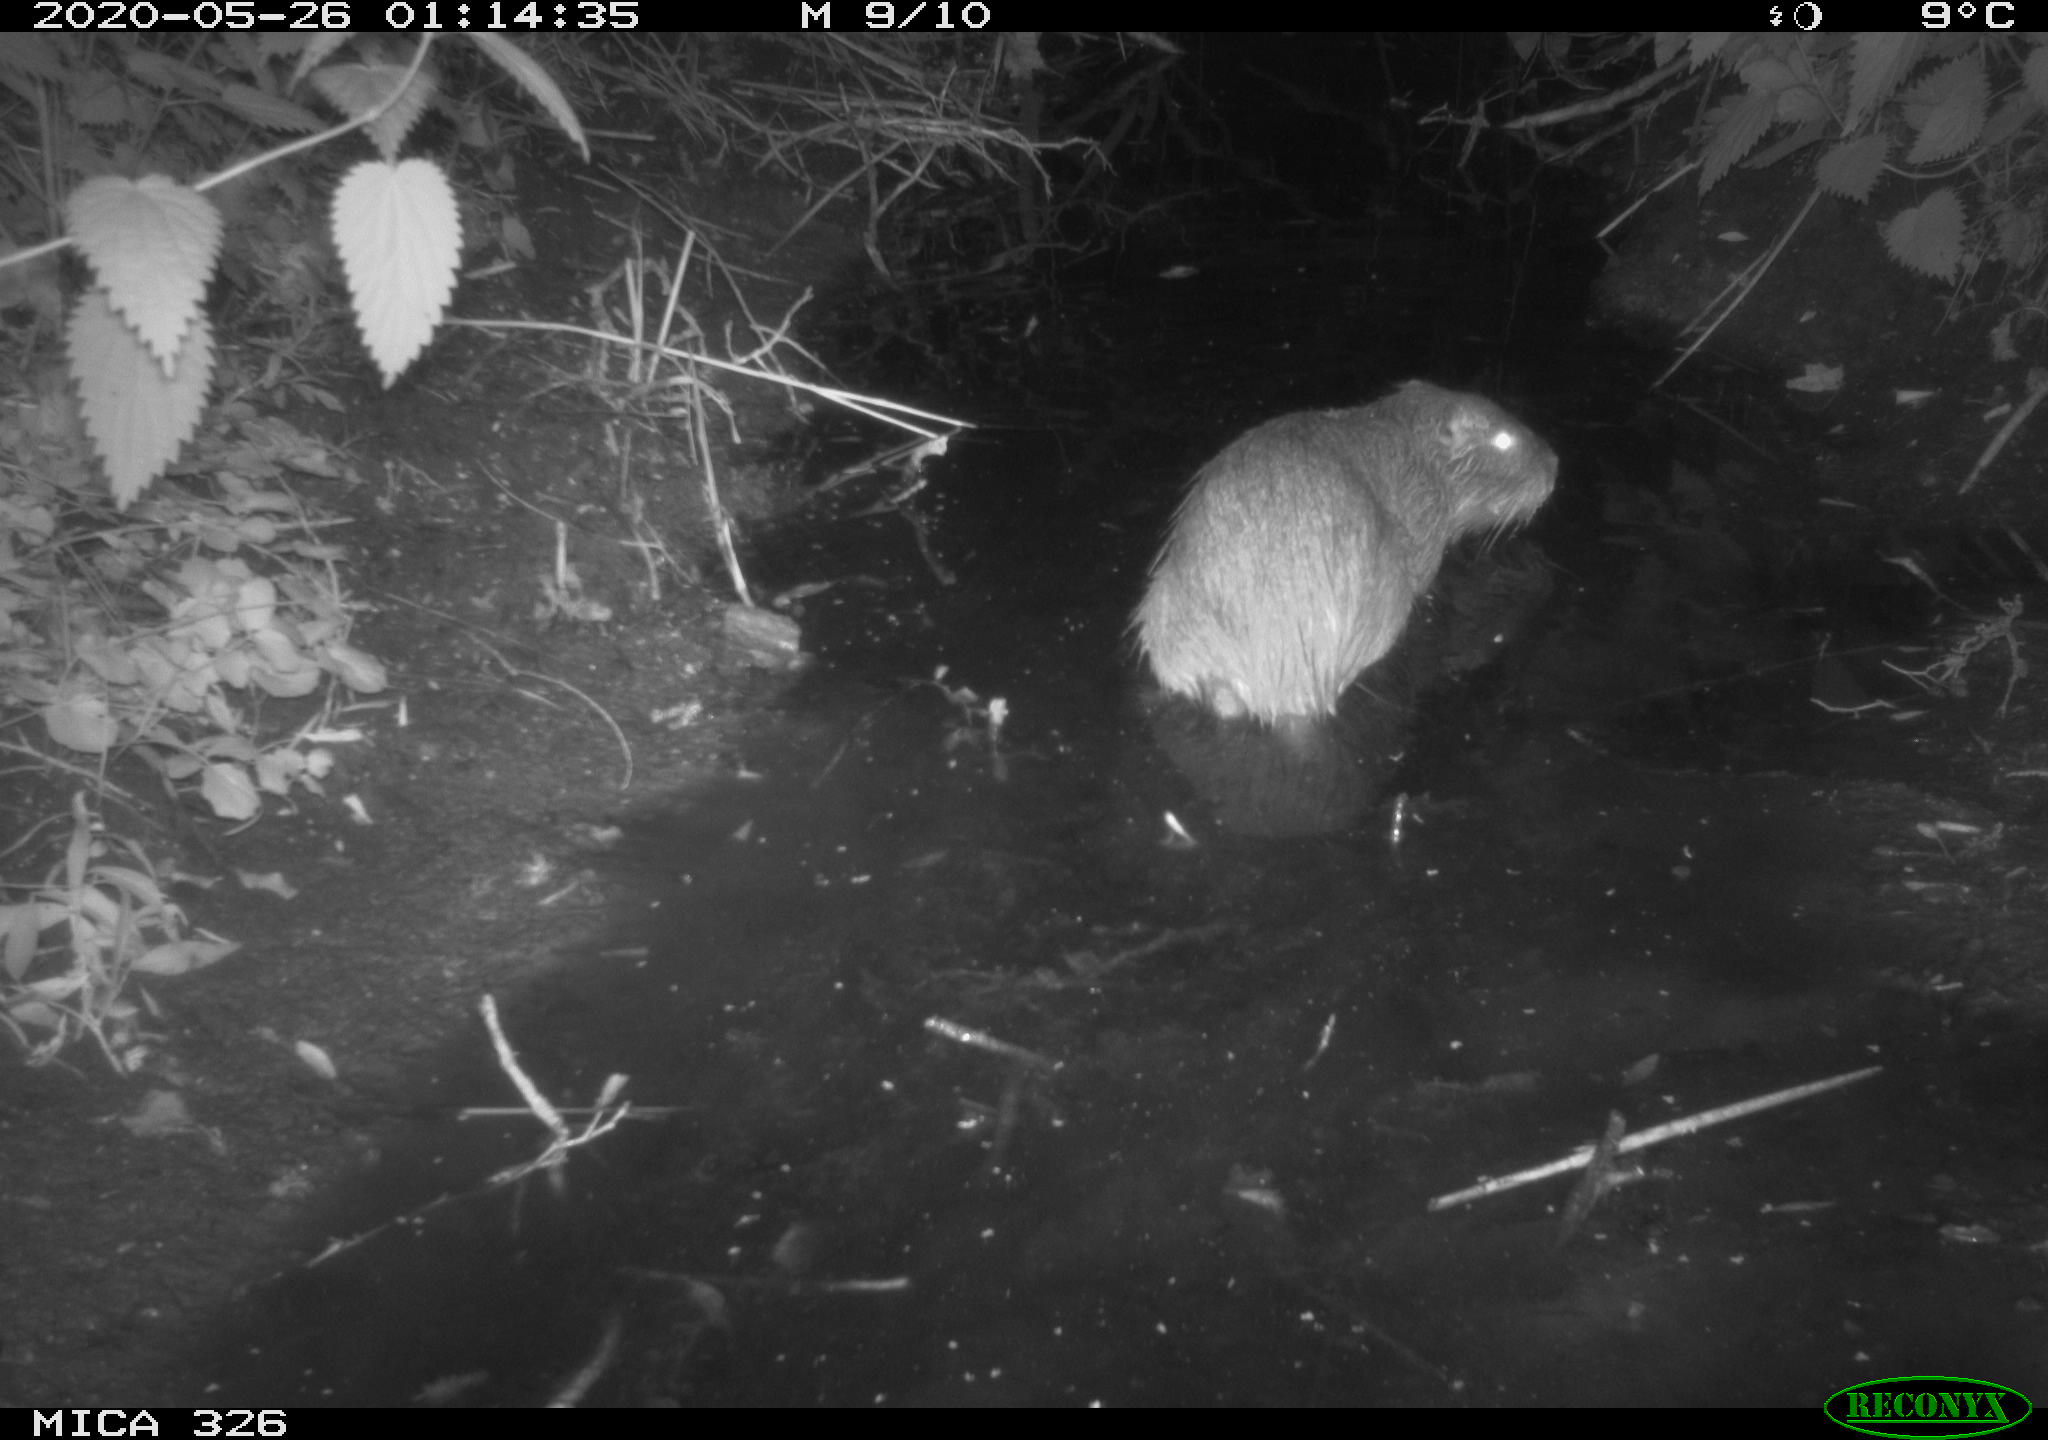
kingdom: Animalia
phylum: Chordata
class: Mammalia
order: Rodentia
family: Myocastoridae
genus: Myocastor
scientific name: Myocastor coypus
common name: Coypu
